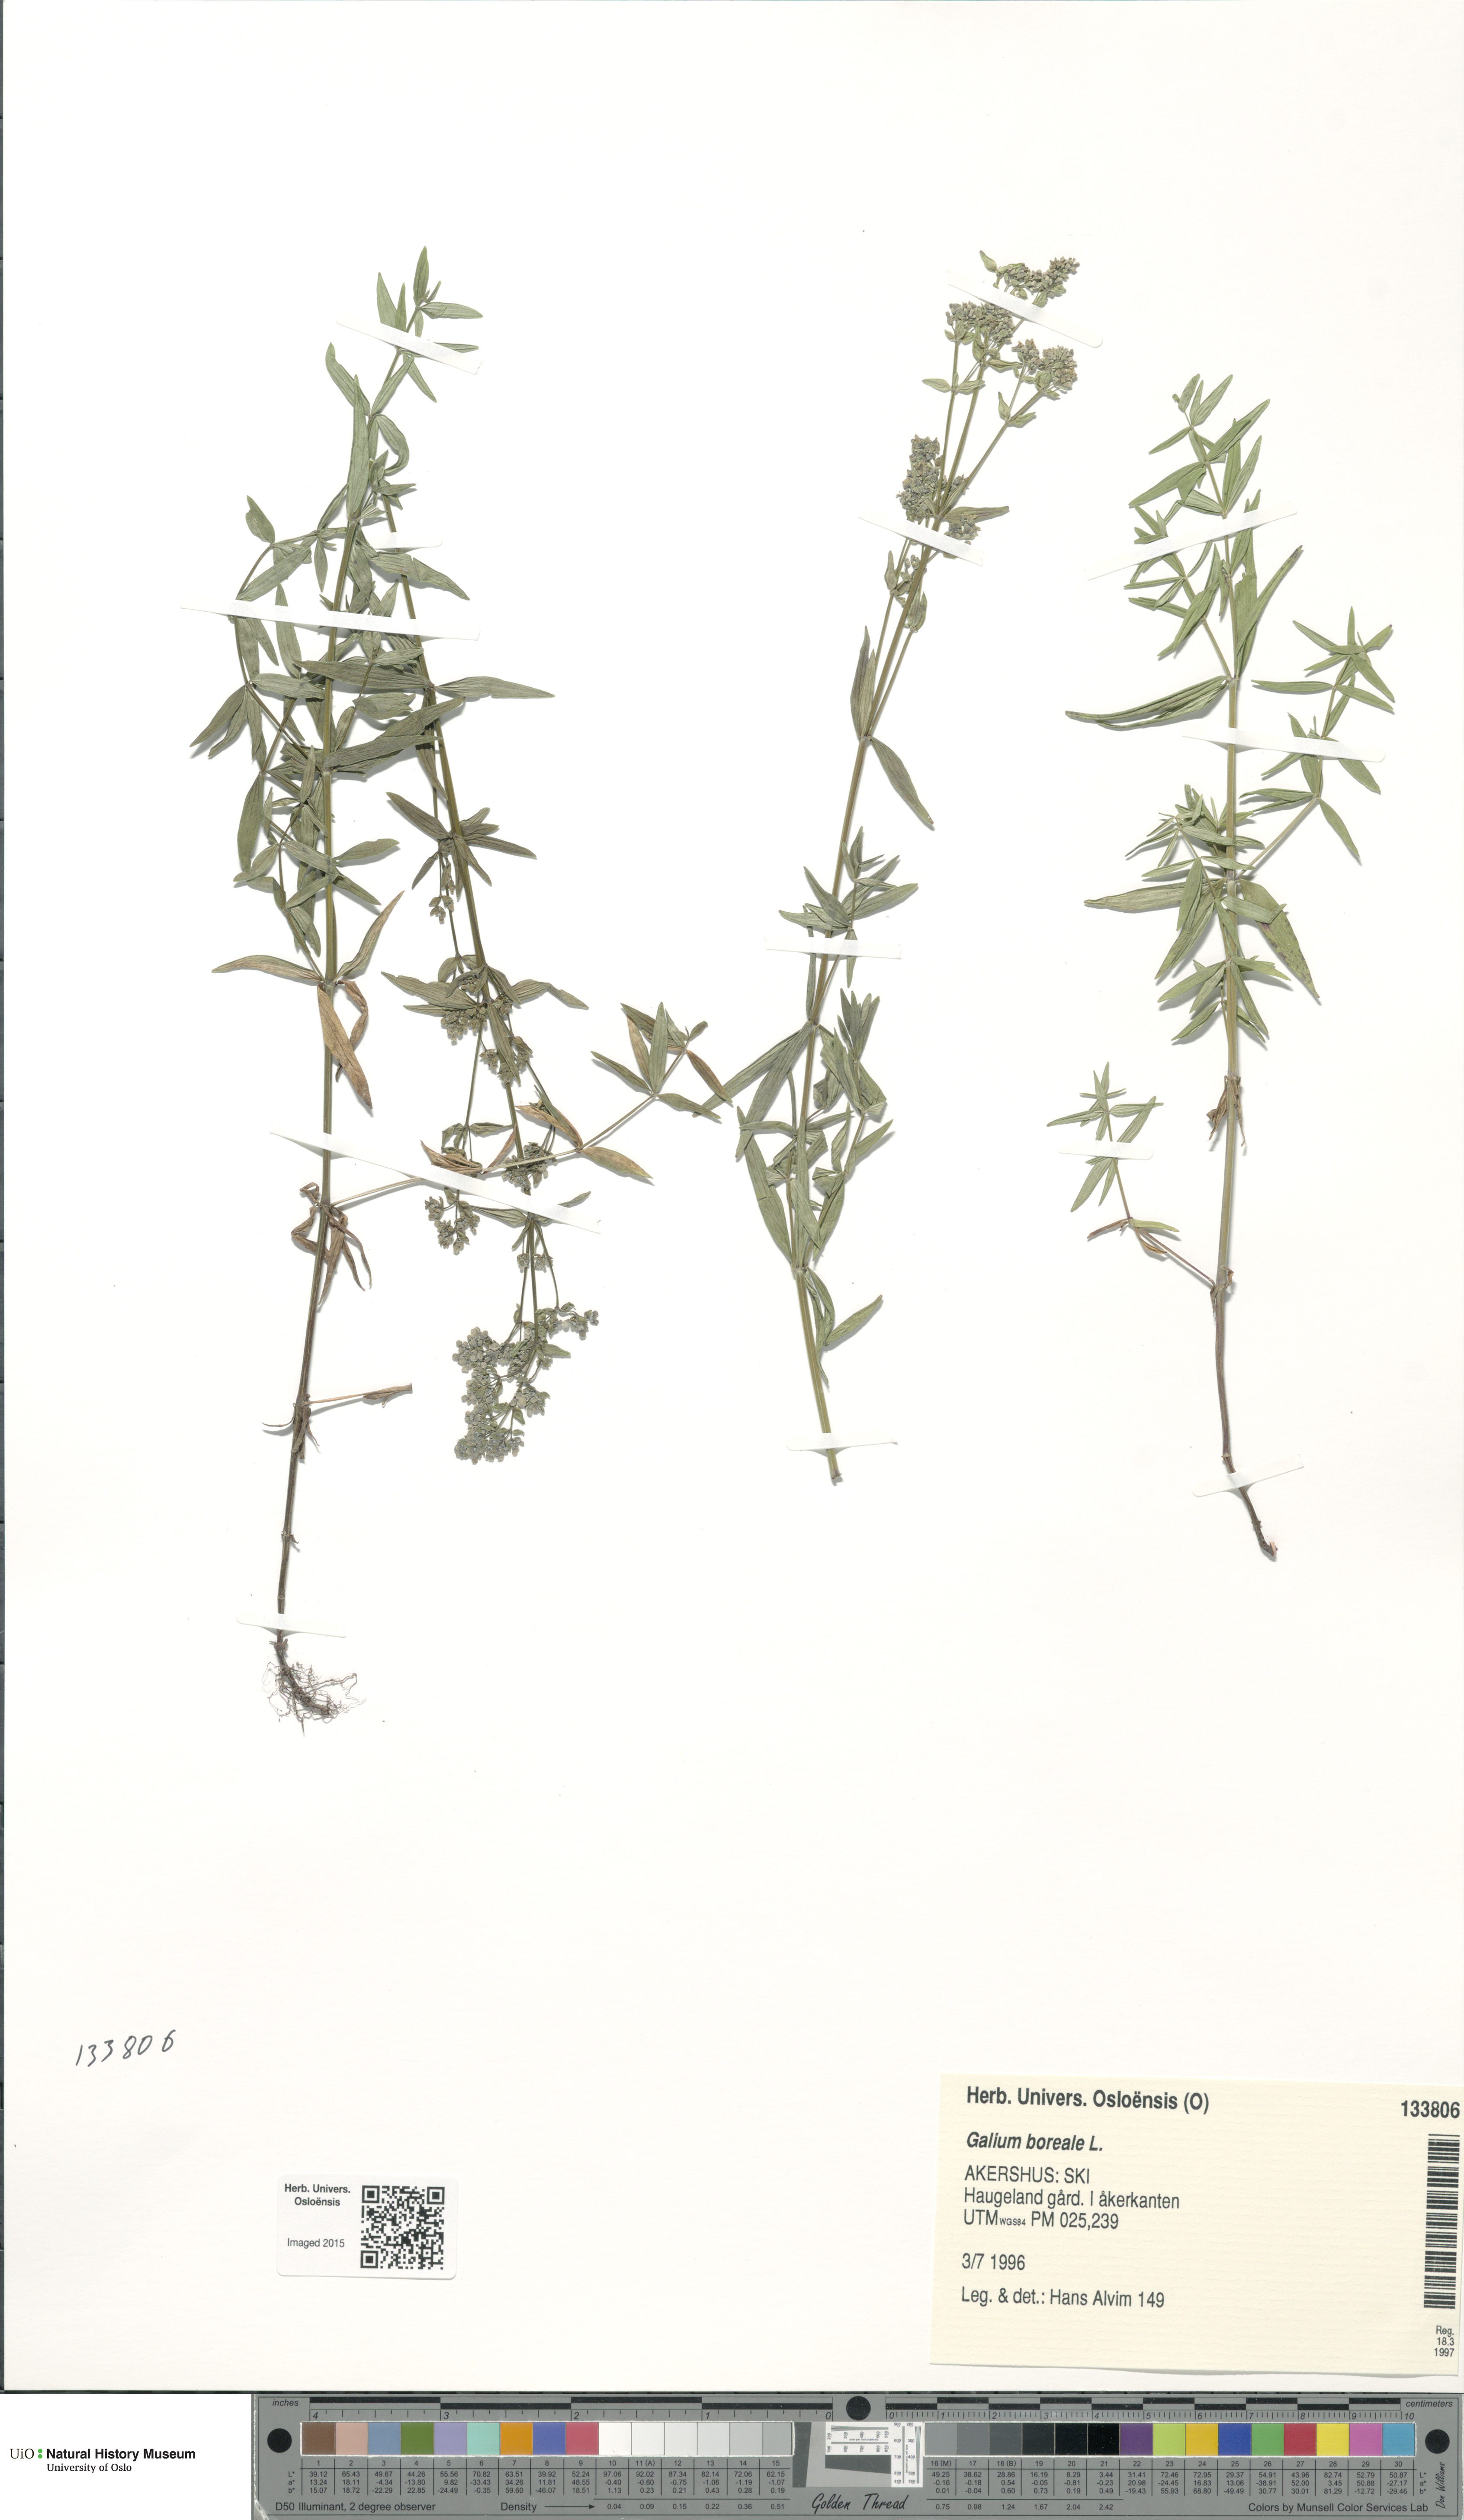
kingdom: Plantae
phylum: Tracheophyta
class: Magnoliopsida
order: Gentianales
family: Rubiaceae
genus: Galium
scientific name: Galium boreale
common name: Northern bedstraw
